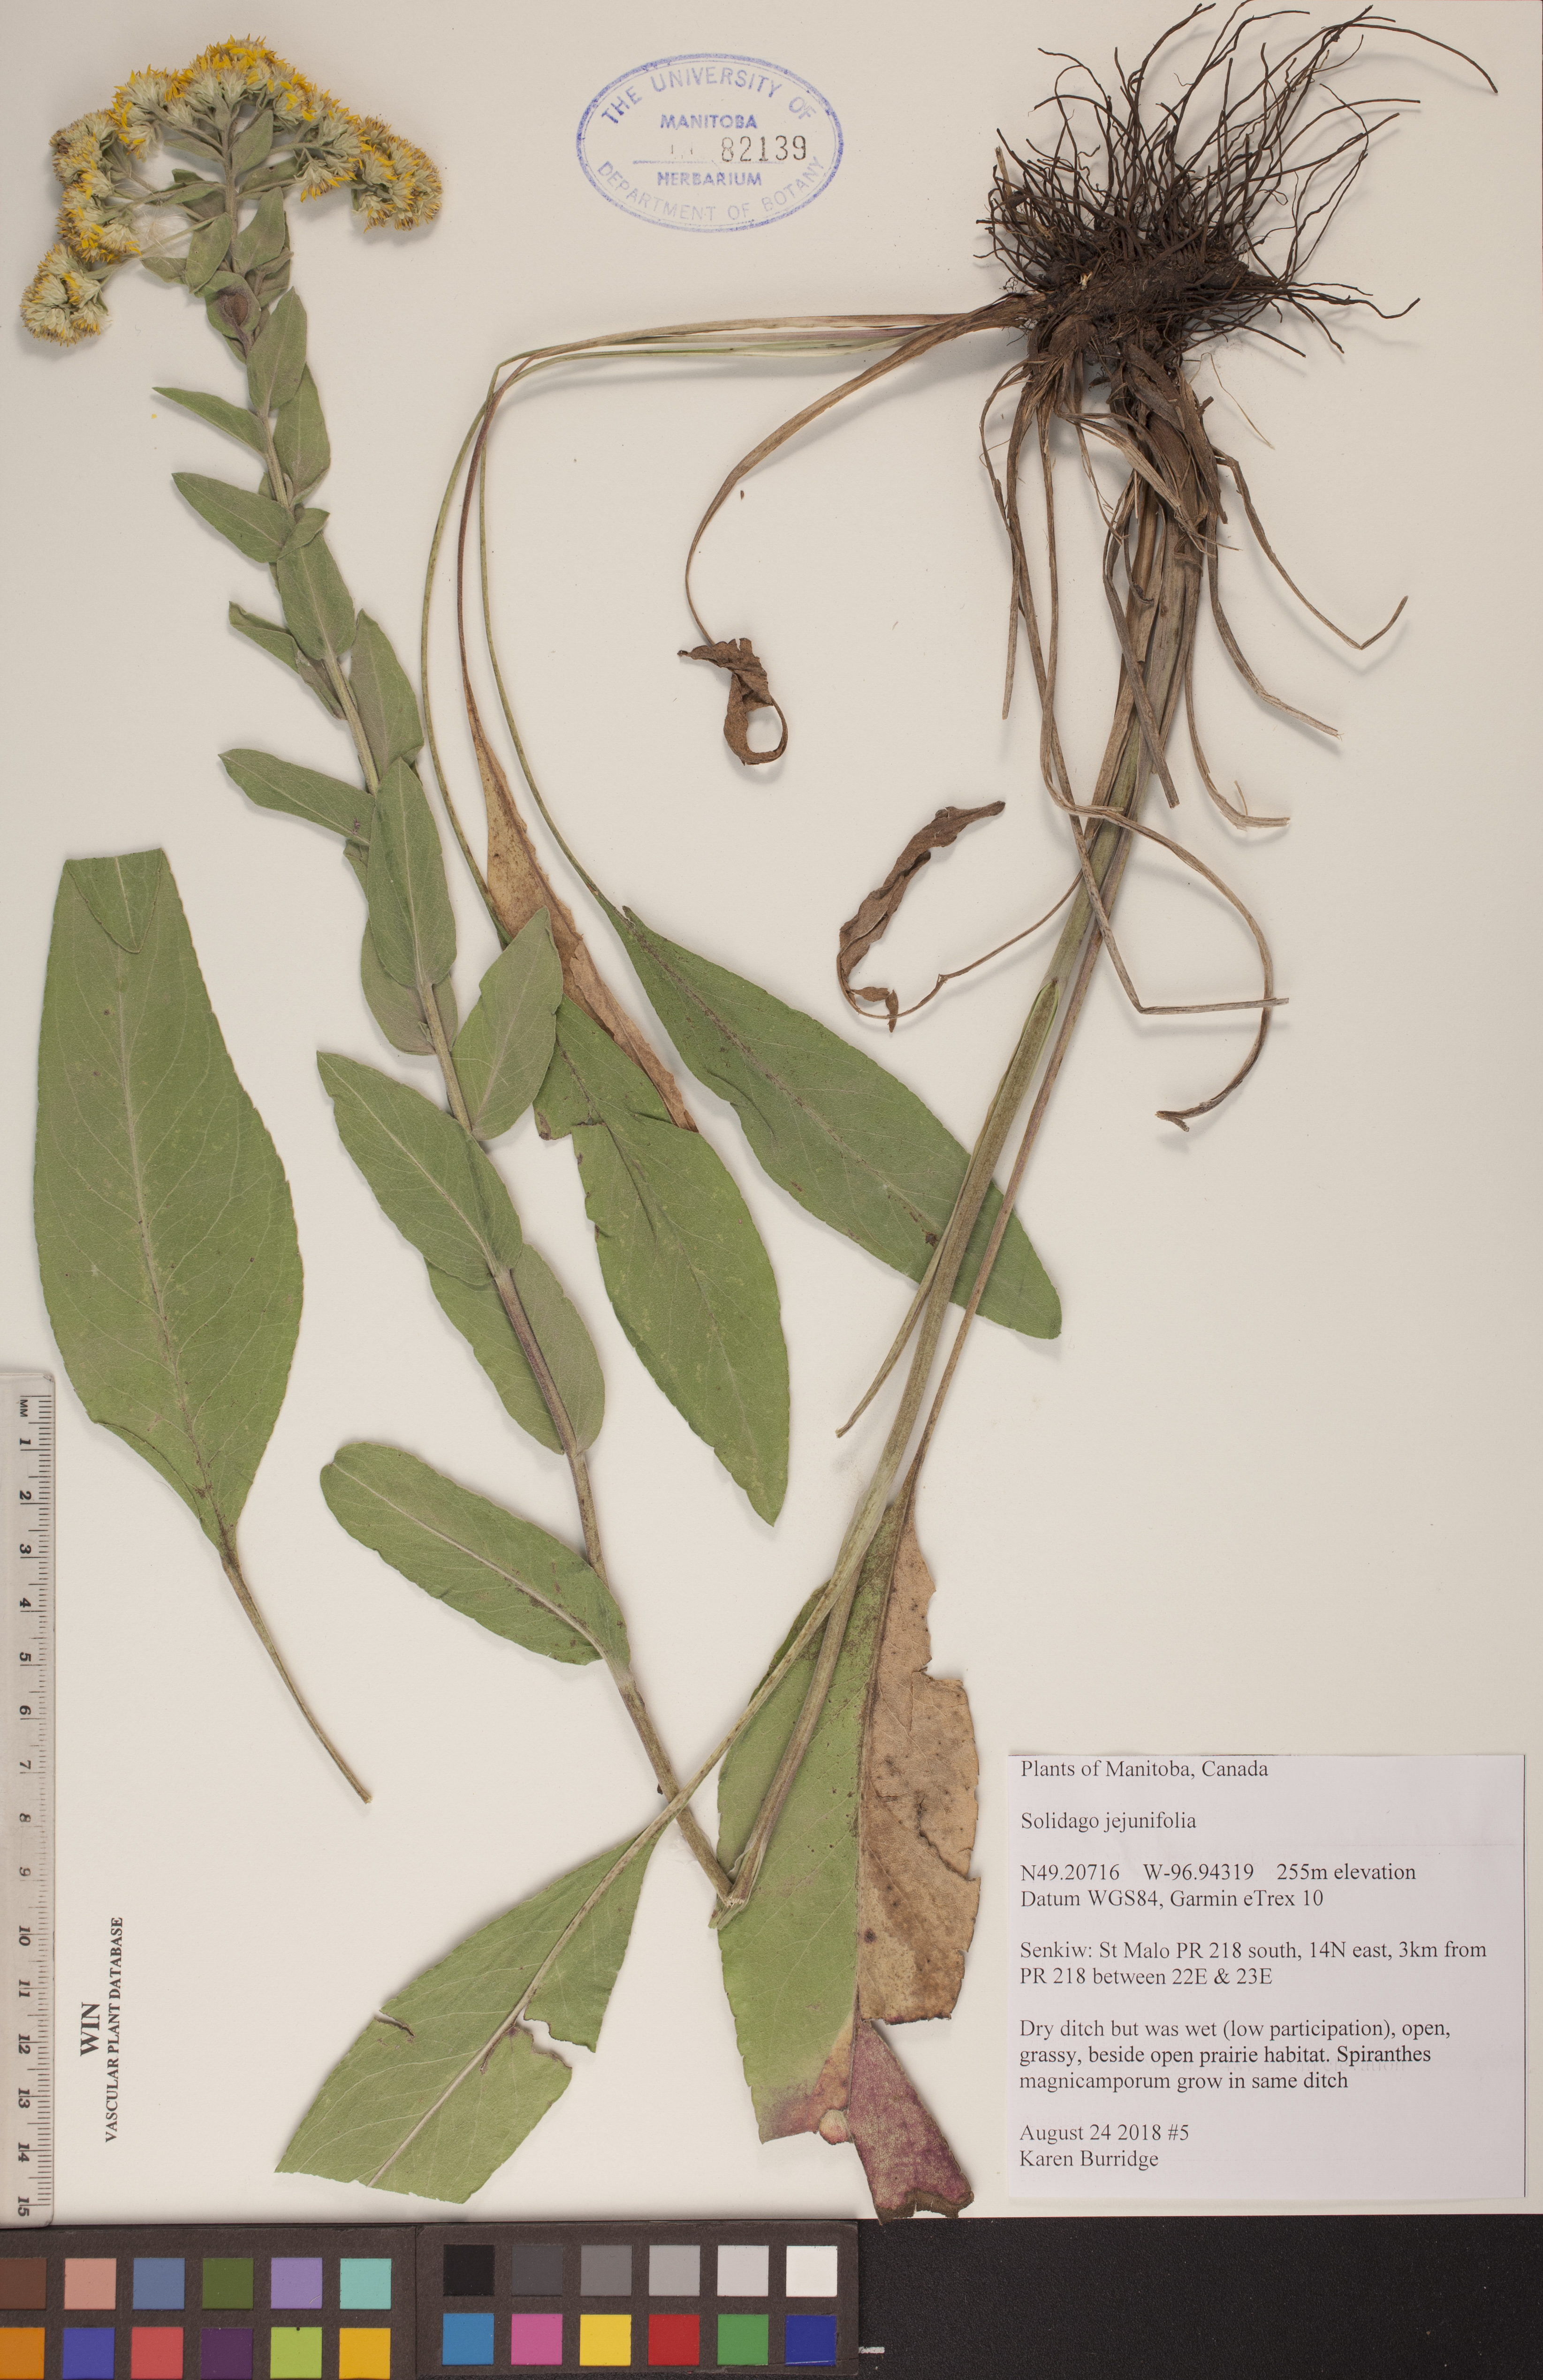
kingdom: Plantae
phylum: Tracheophyta
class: Magnoliopsida
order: Asterales
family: Asteraceae
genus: Solidago
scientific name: Solidago jejunifolia
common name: Few-leaved goldenrod
